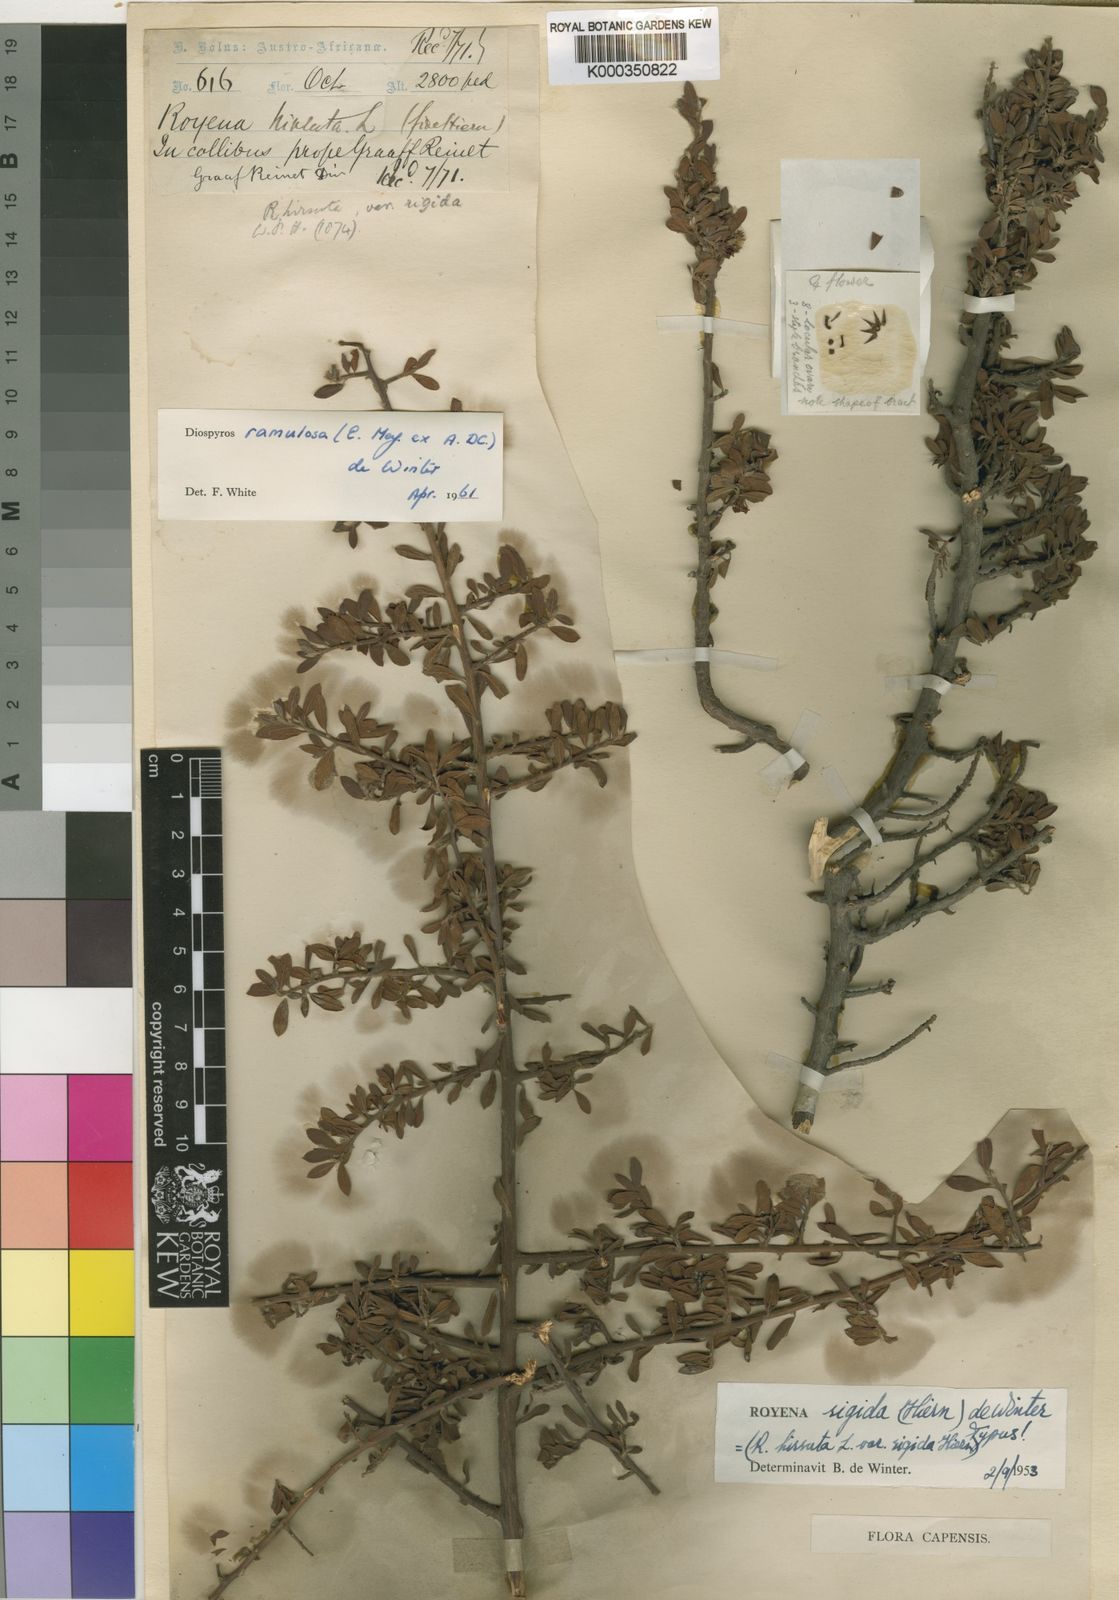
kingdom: Plantae
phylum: Tracheophyta
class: Magnoliopsida
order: Ericales
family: Ebenaceae
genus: Diospyros
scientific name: Diospyros ramulosa
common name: Namaqua fire-sticks
